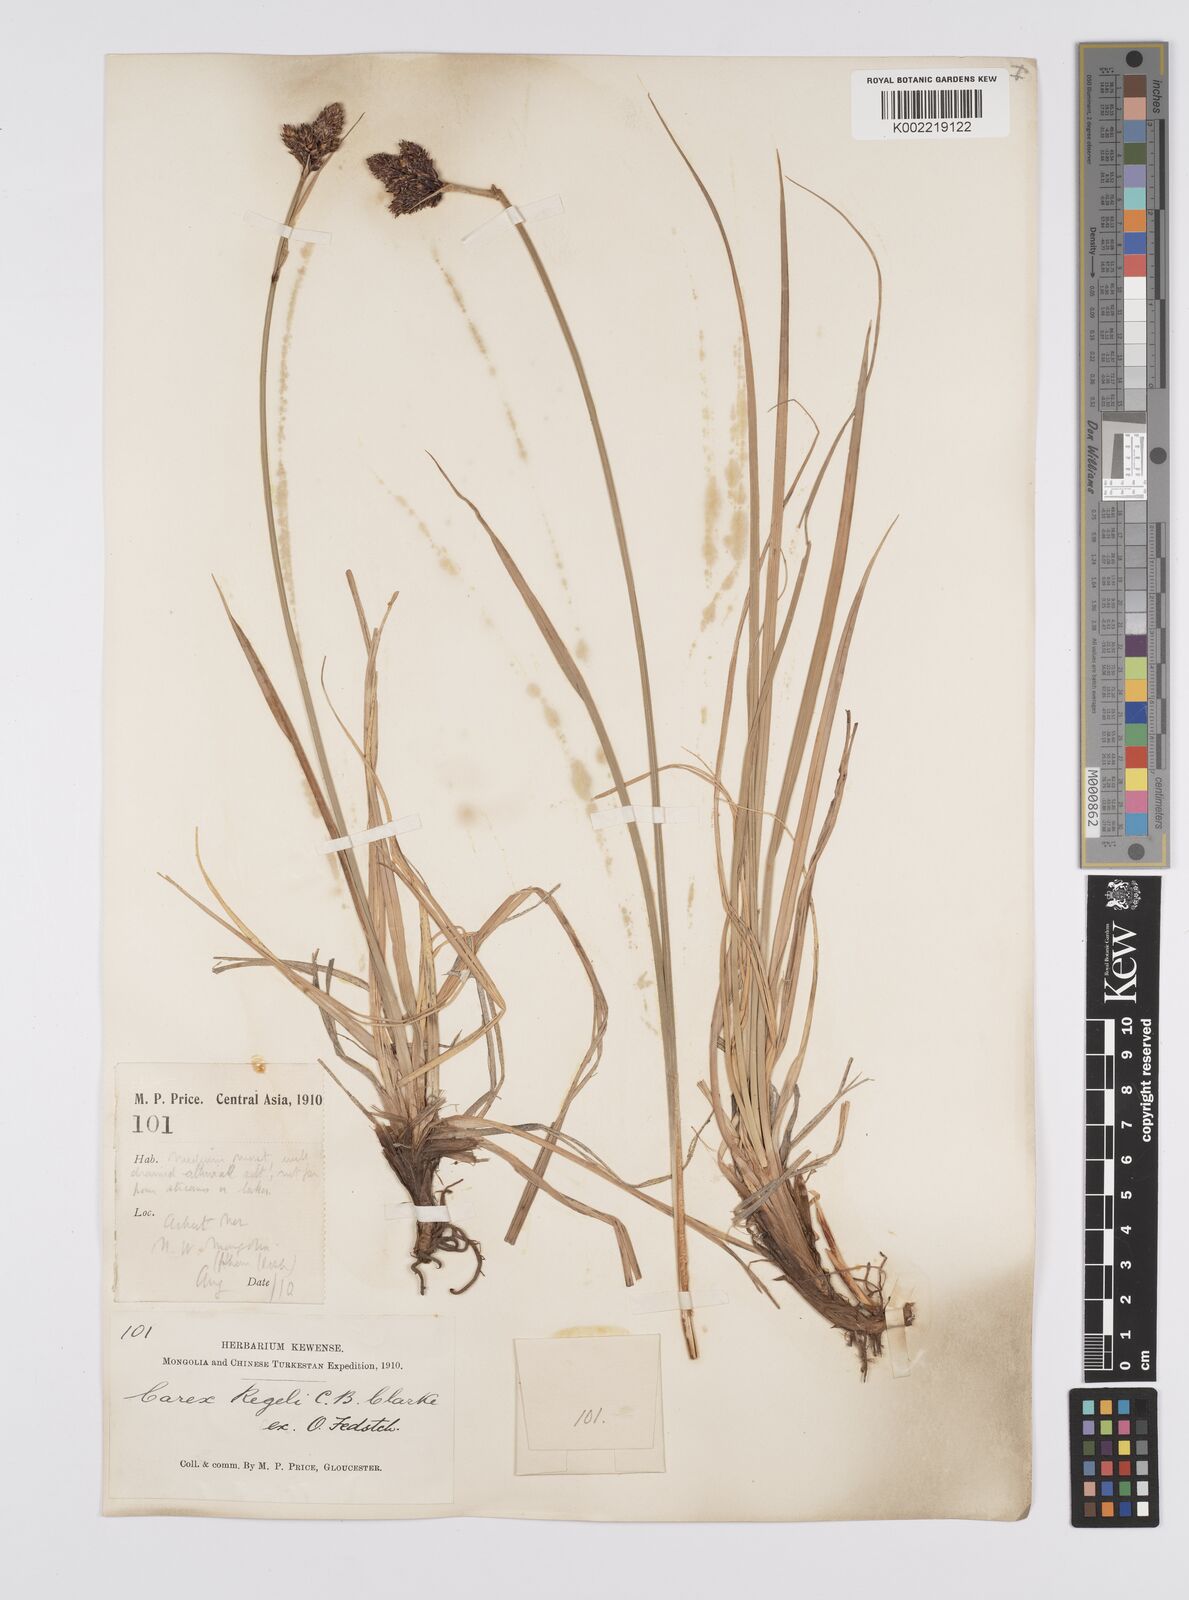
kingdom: Plantae
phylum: Tracheophyta
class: Liliopsida
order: Poales
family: Cyperaceae
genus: Carex
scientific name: Carex melanantha
